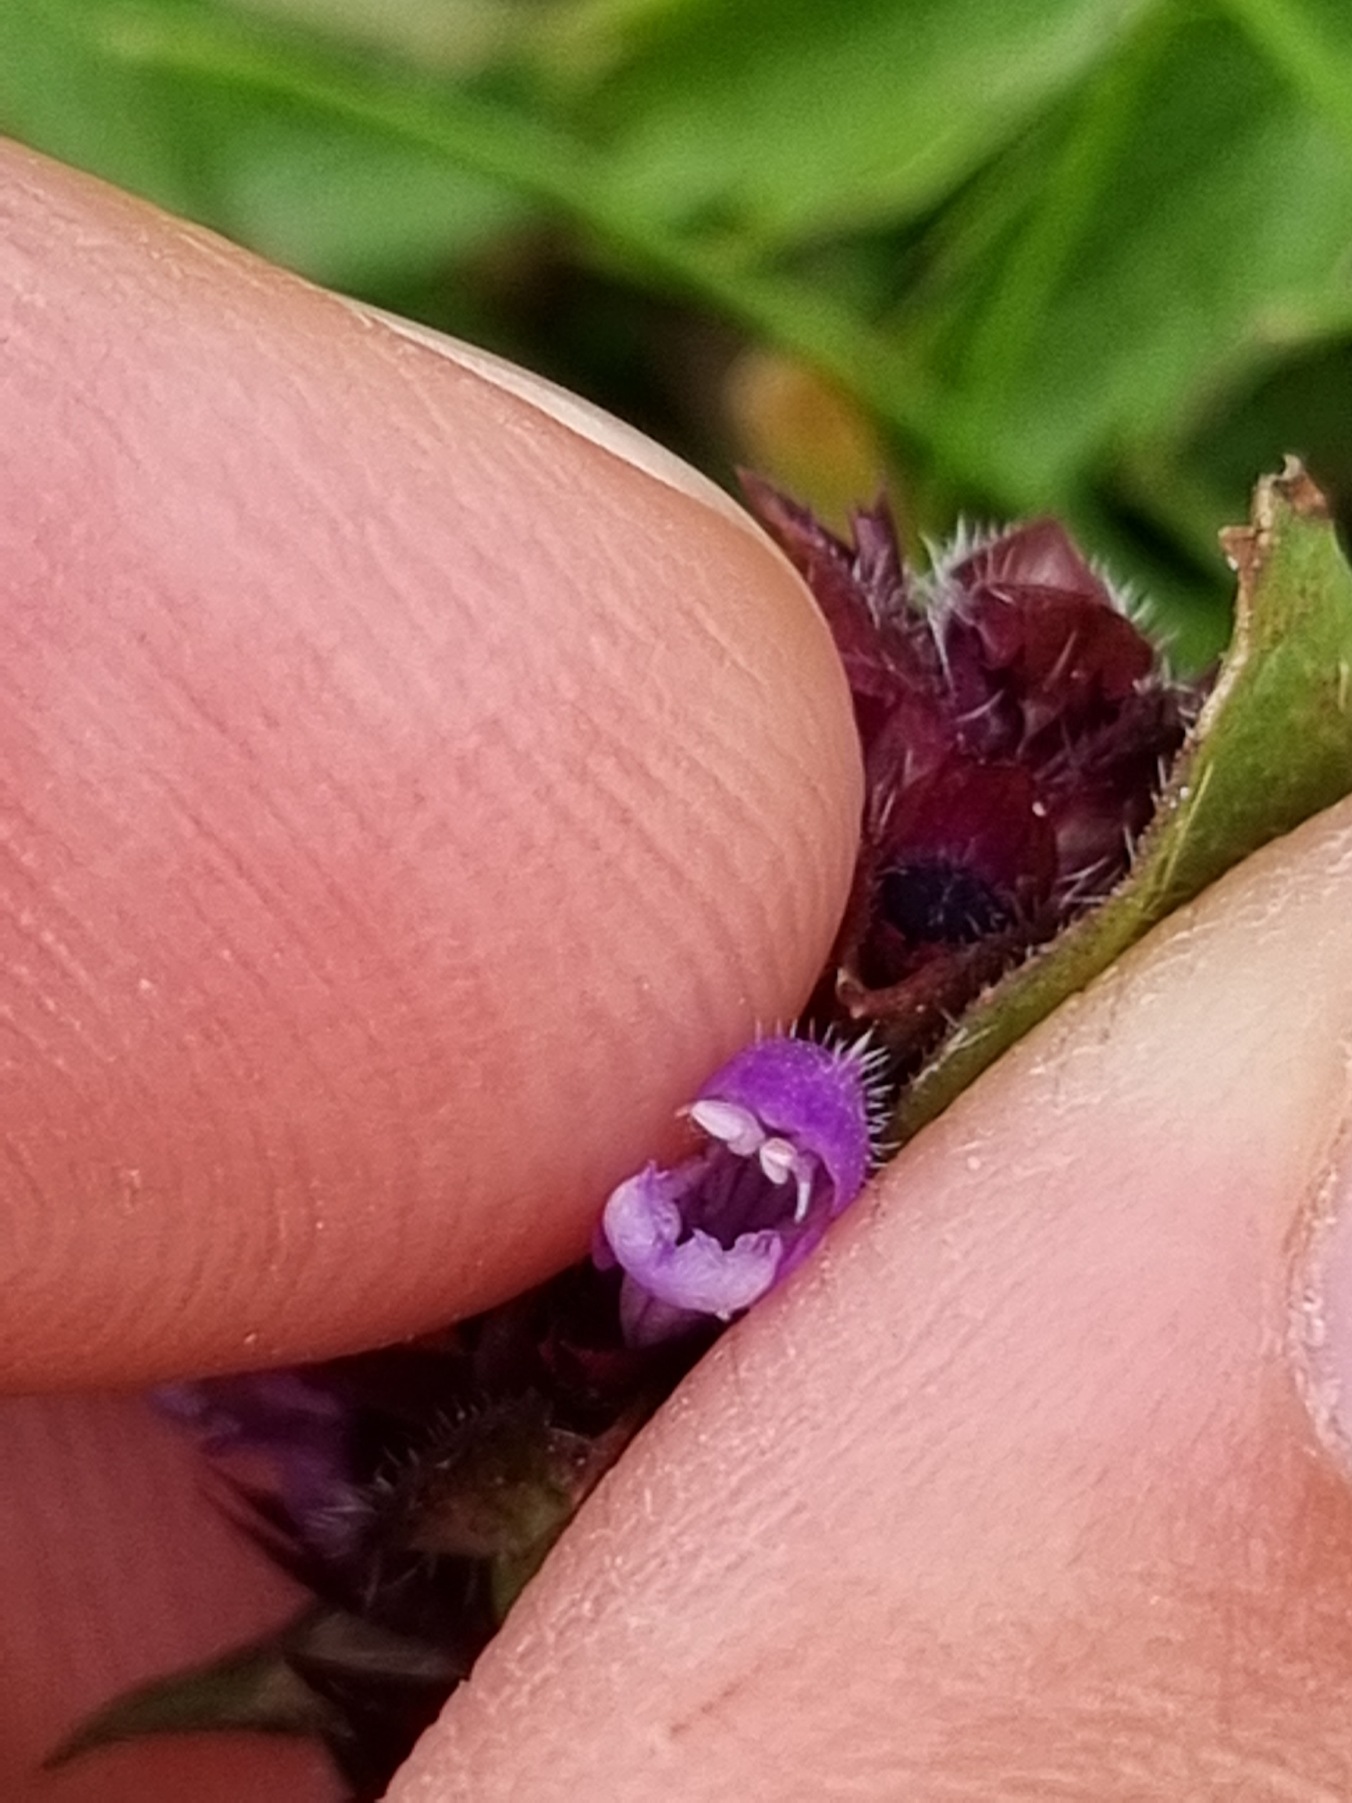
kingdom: Plantae
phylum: Tracheophyta
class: Magnoliopsida
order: Lamiales
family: Lamiaceae
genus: Prunella
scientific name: Prunella vulgaris
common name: Almindelig brunelle
